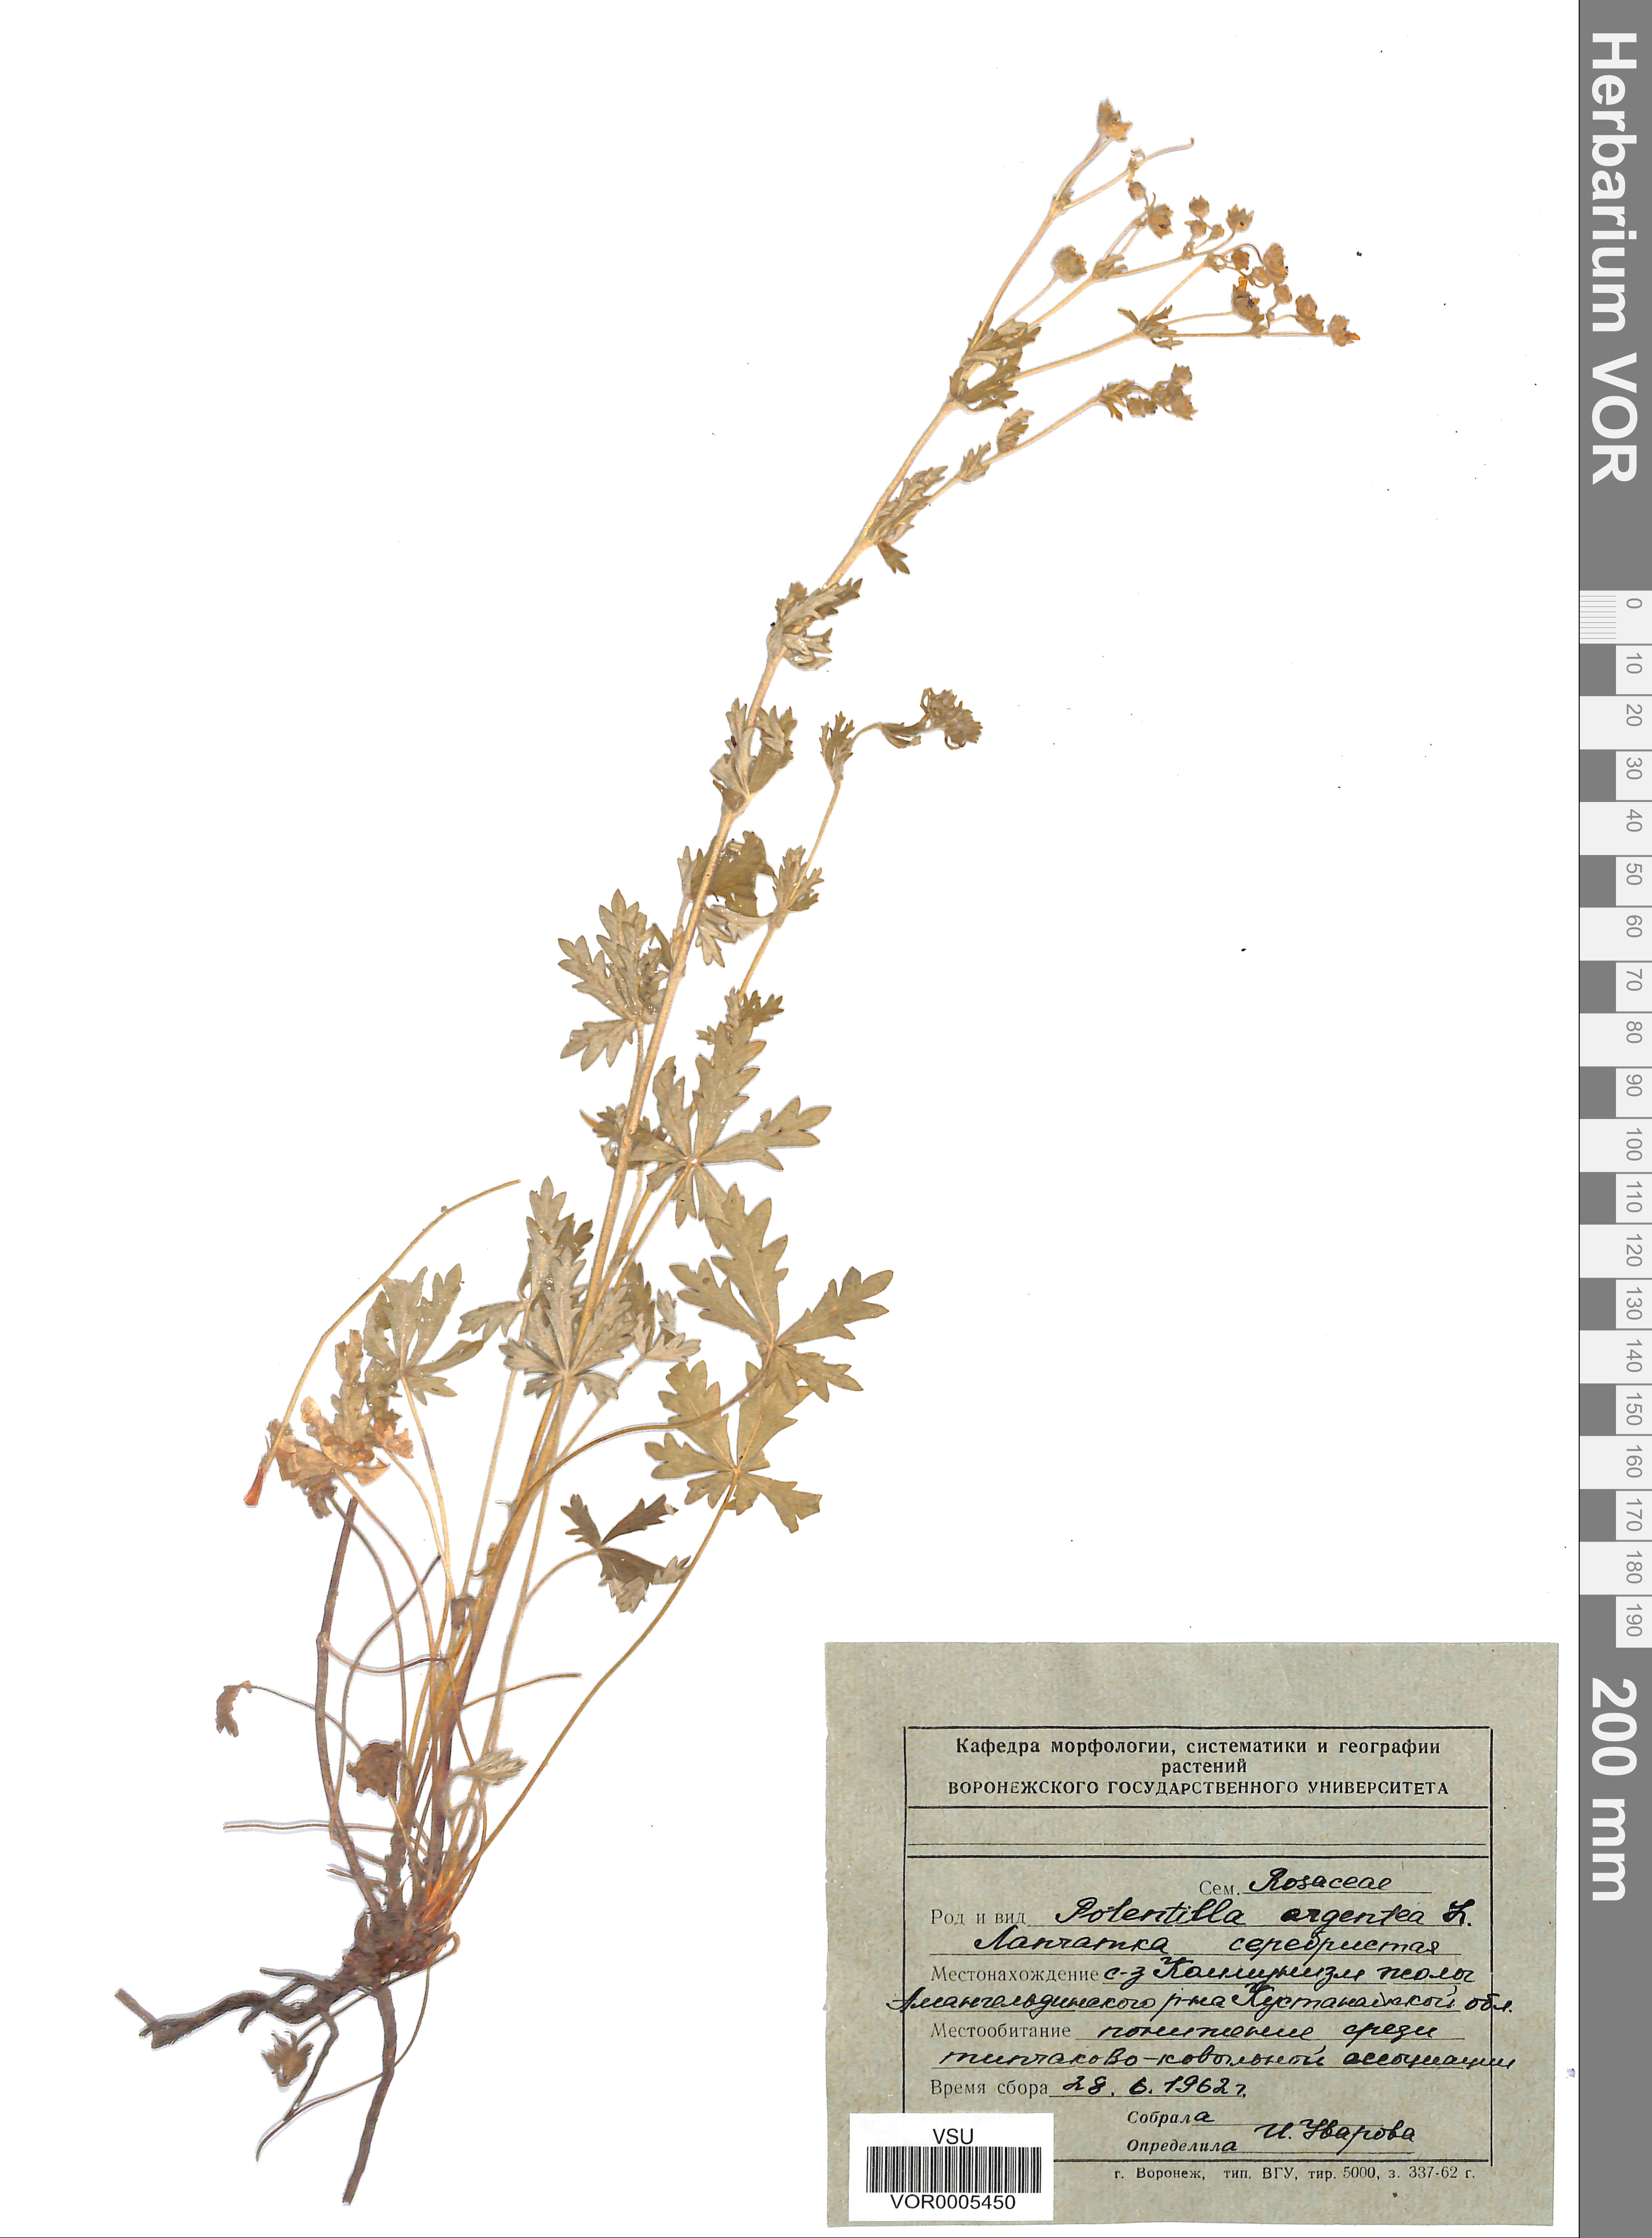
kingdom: Plantae
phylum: Tracheophyta
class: Magnoliopsida
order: Rosales
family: Rosaceae
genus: Potentilla
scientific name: Potentilla inclinata
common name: Grey cinquefoil
